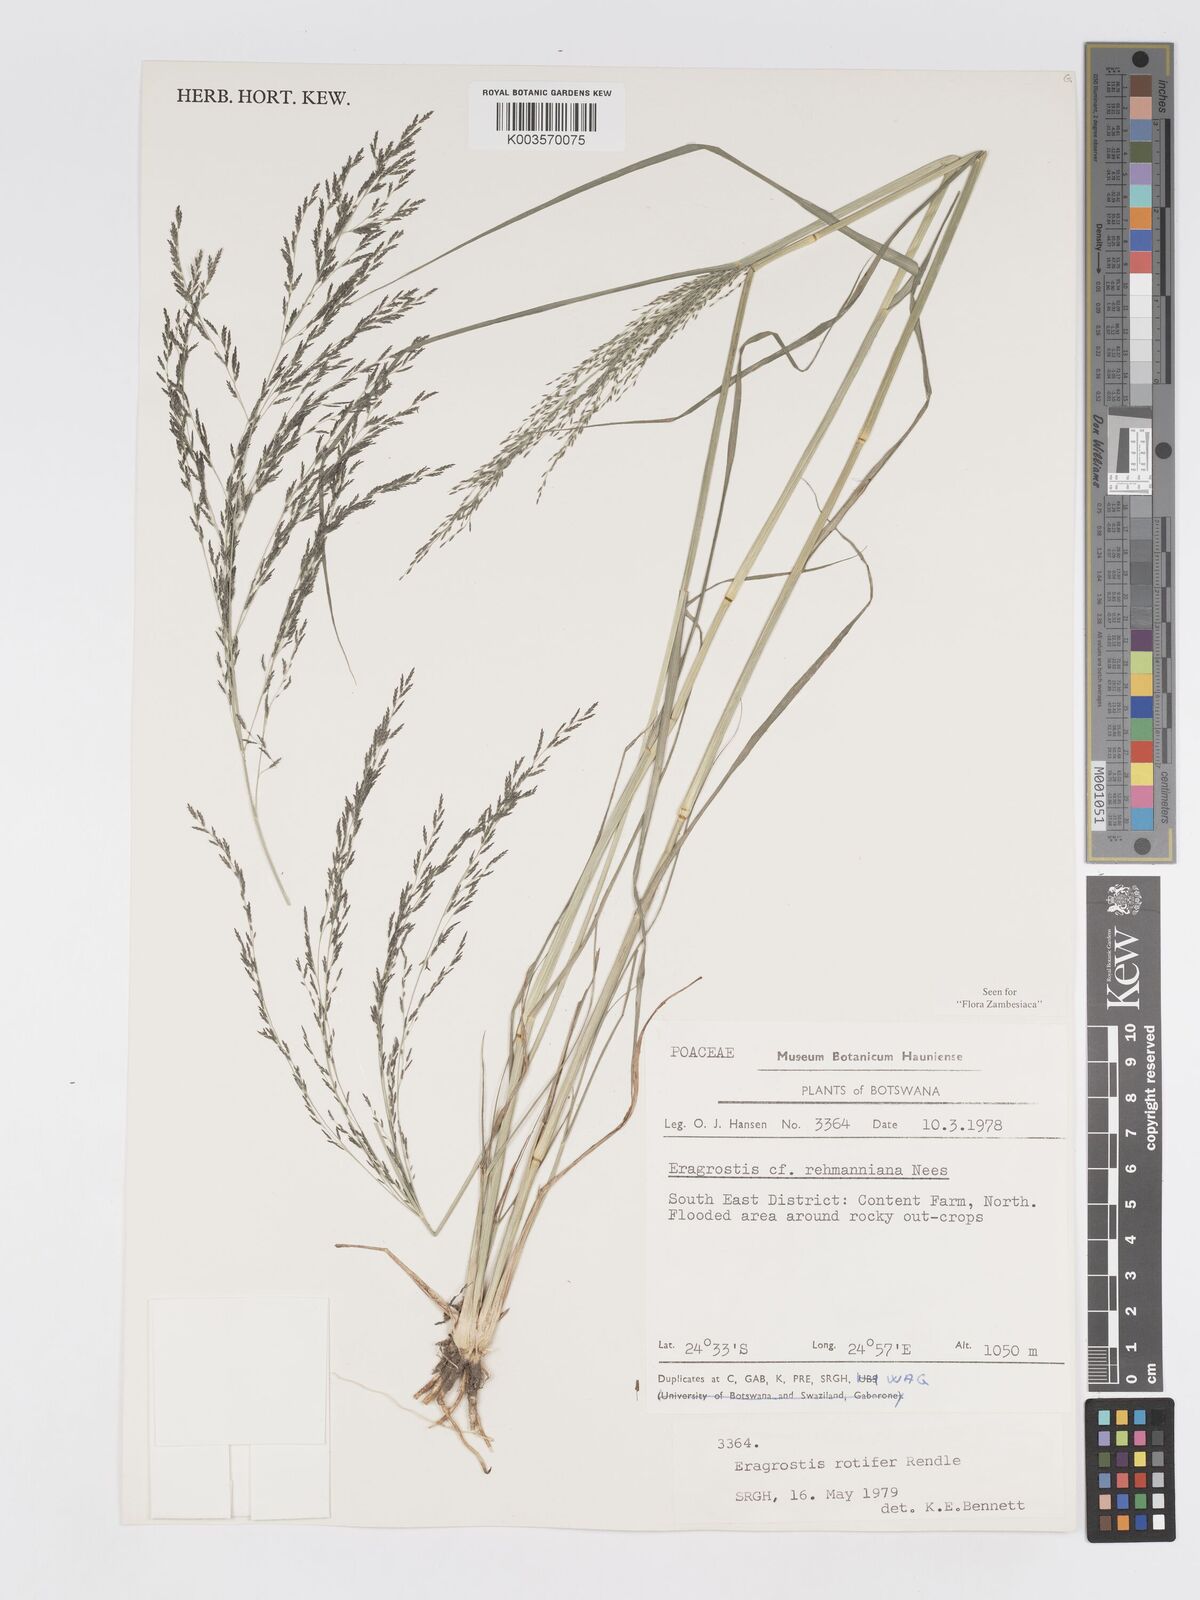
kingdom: Plantae
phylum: Tracheophyta
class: Liliopsida
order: Poales
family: Poaceae
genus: Eragrostis
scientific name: Eragrostis rotifer
